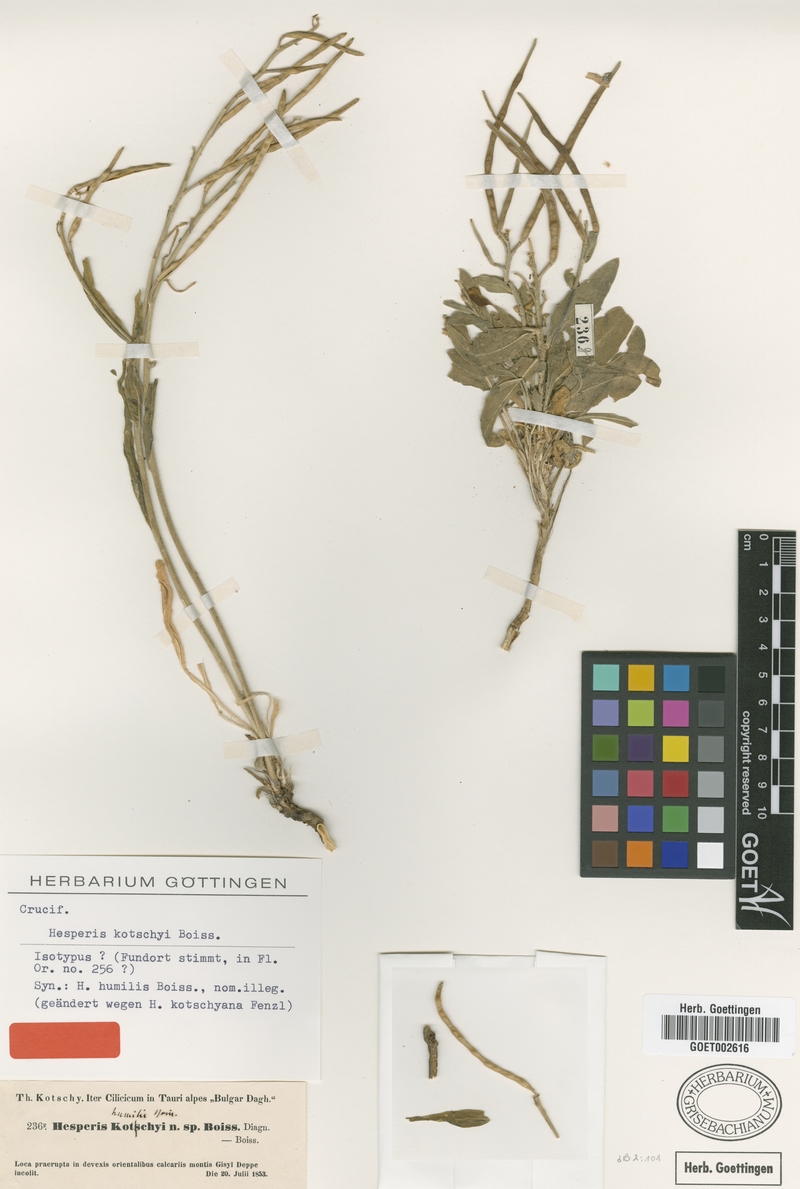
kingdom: Plantae
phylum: Tracheophyta
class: Magnoliopsida
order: Brassicales
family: Brassicaceae
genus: Hesperis
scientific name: Hesperis kotschyi
